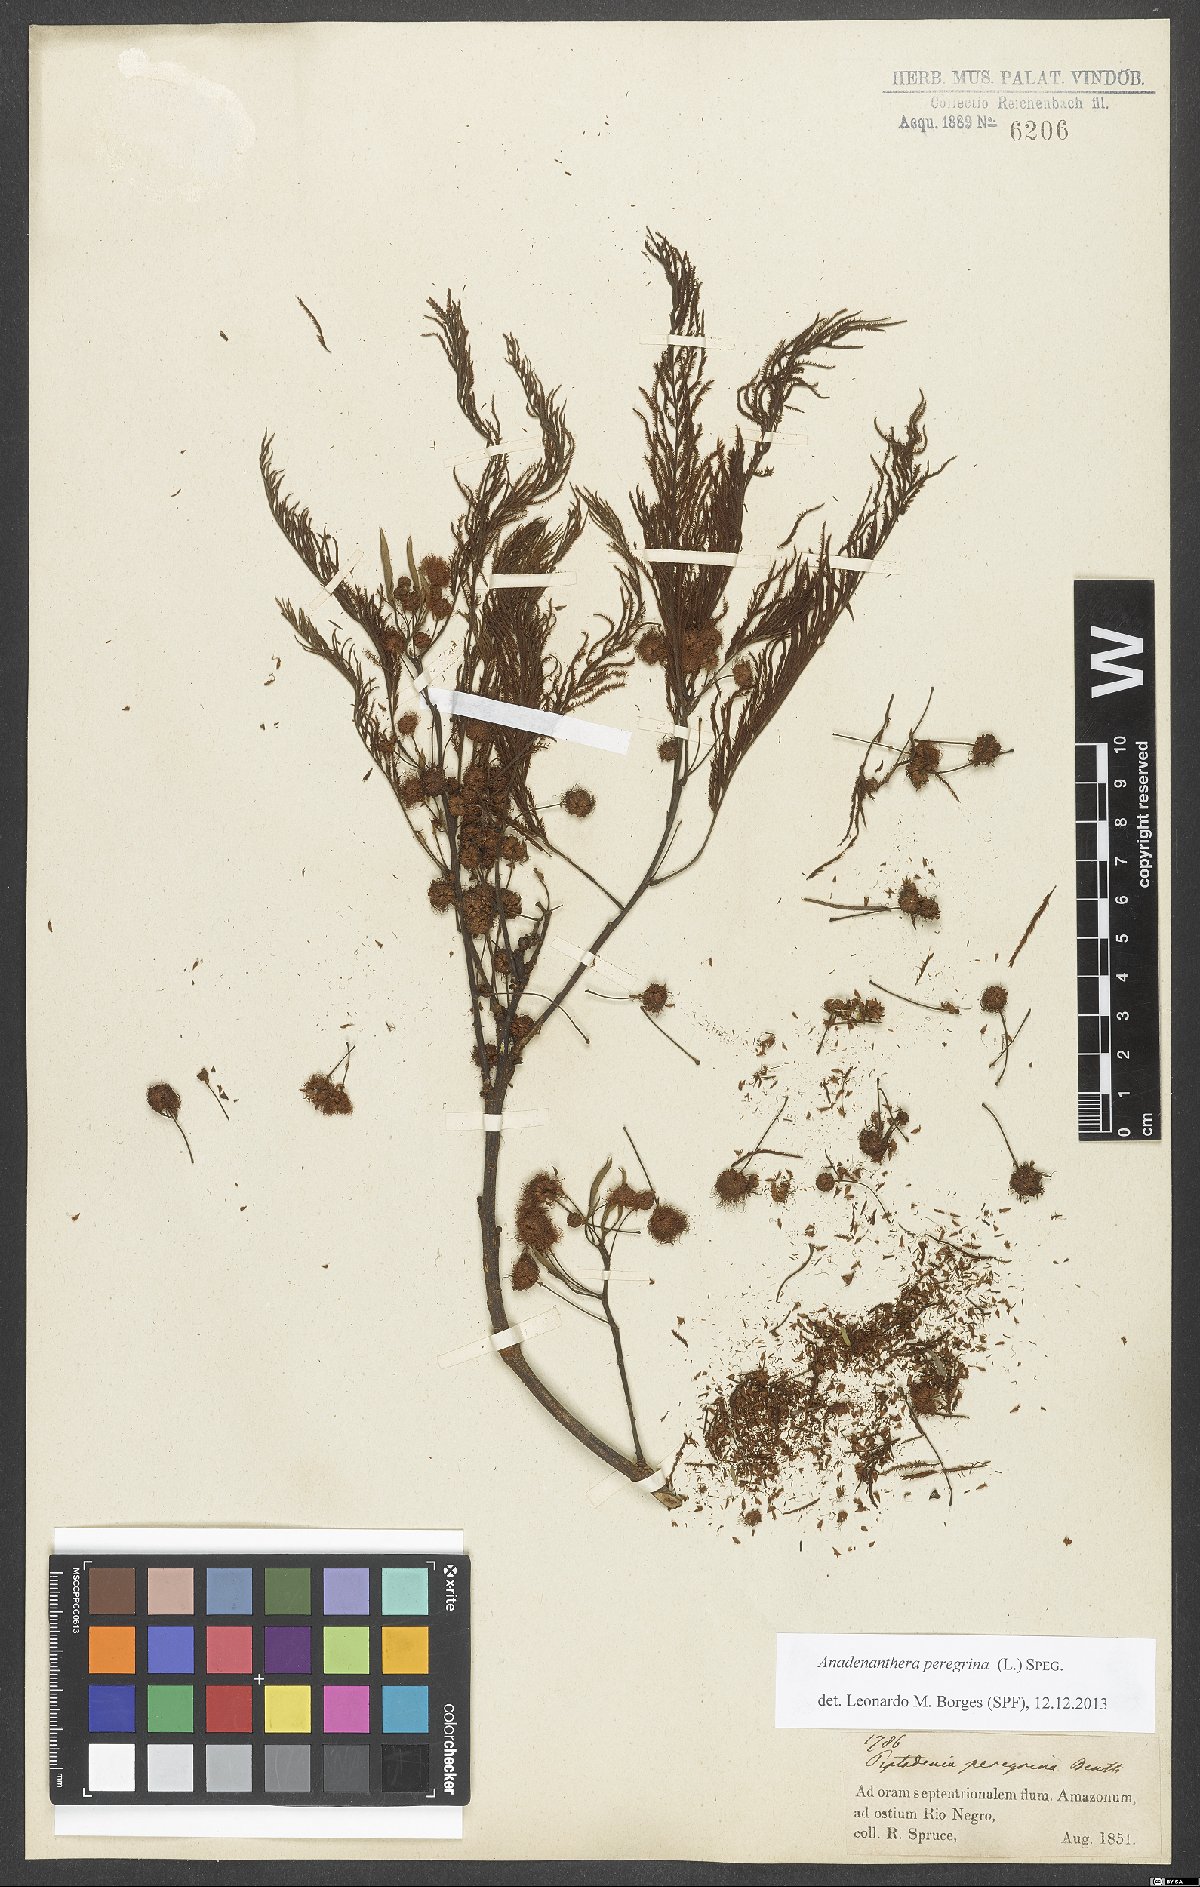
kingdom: Plantae
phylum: Tracheophyta
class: Magnoliopsida
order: Fabales
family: Fabaceae
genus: Anadenanthera
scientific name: Anadenanthera peregrina
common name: Cohoba
